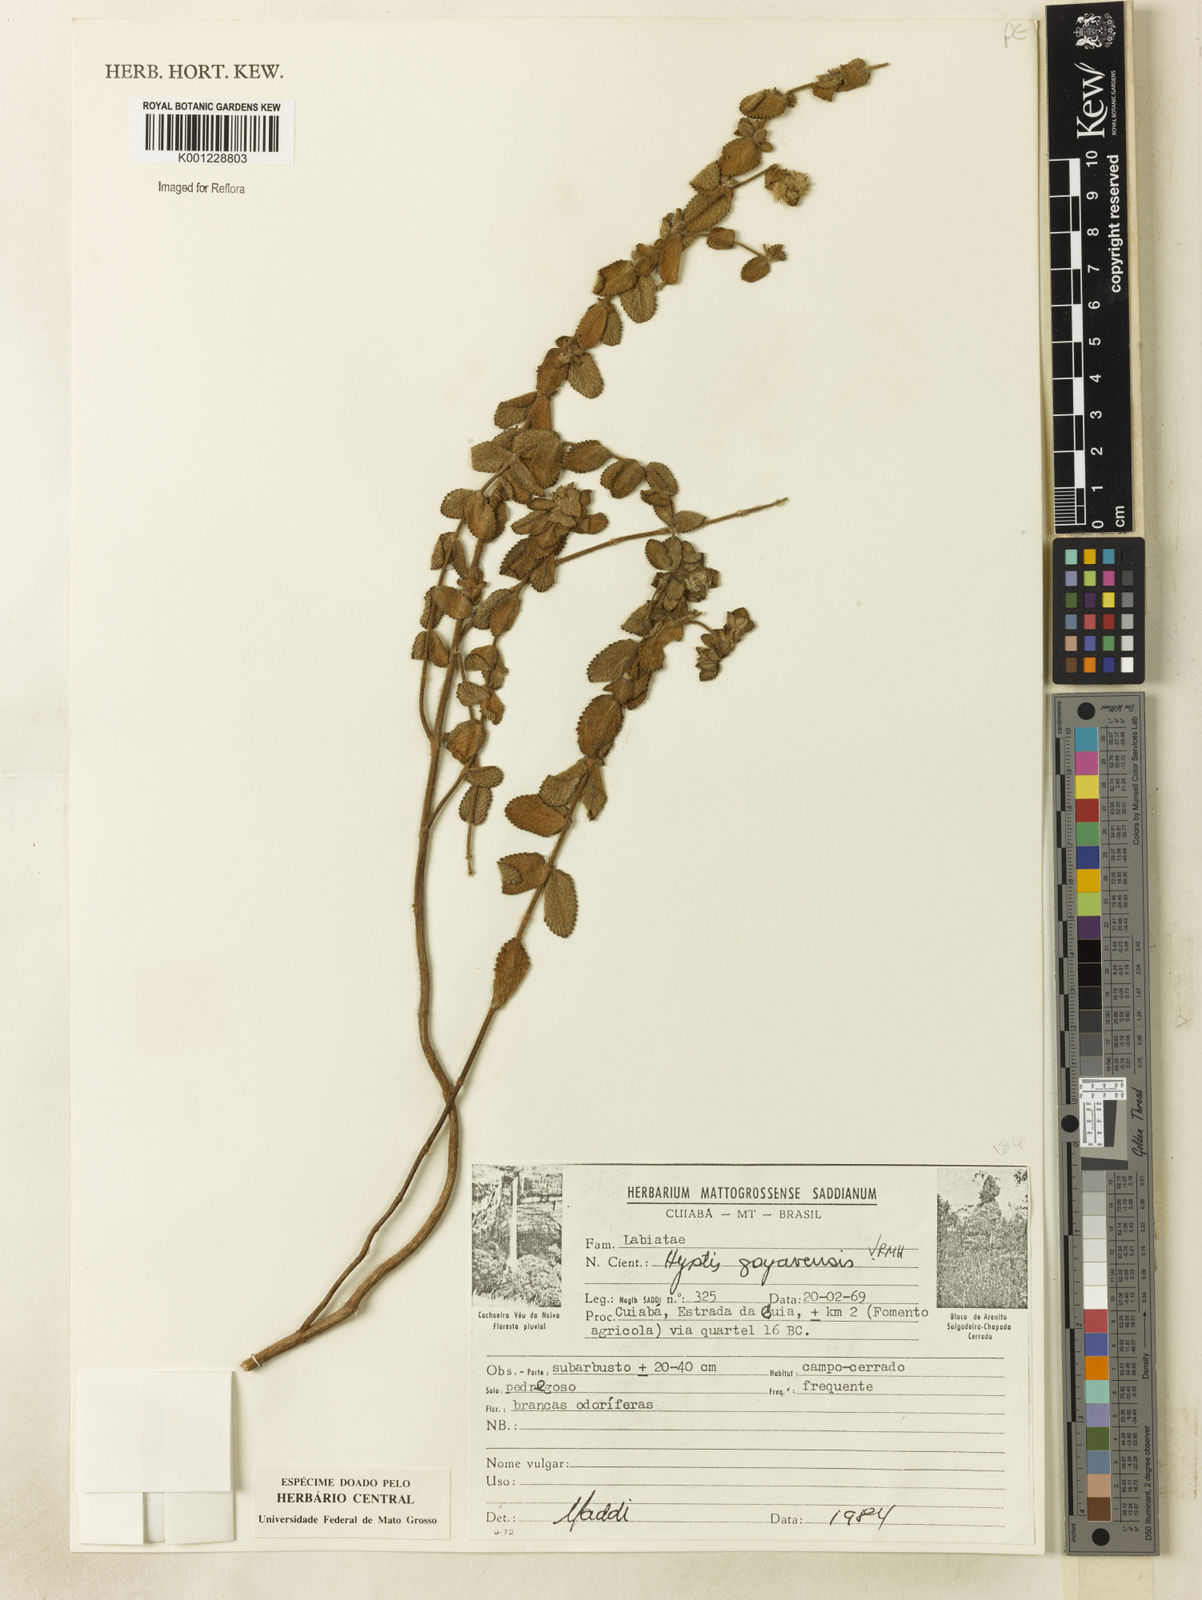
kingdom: Plantae
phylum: Tracheophyta
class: Magnoliopsida
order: Lamiales
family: Lamiaceae
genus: Hyptis
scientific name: Hyptis goyazensis
